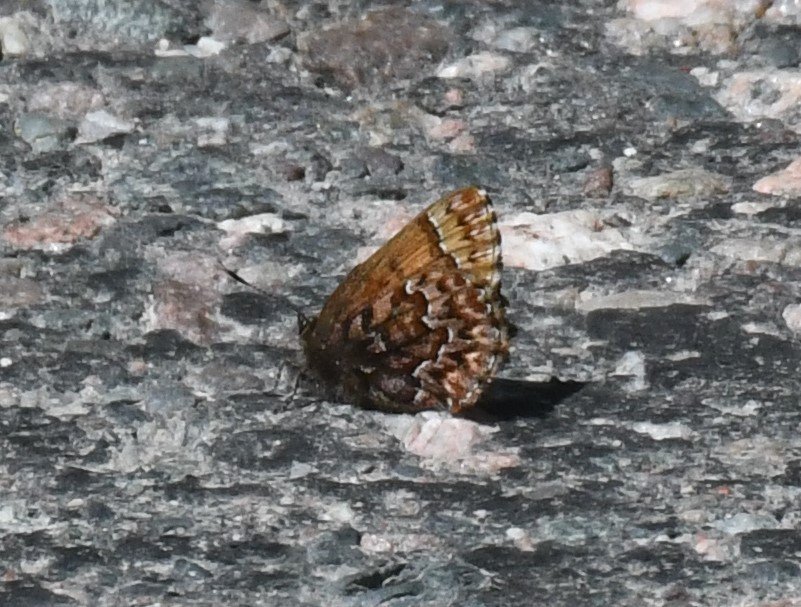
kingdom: Animalia
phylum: Arthropoda
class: Insecta
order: Lepidoptera
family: Lycaenidae
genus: Incisalia
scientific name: Incisalia eryphon
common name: Western Pine Elfin
